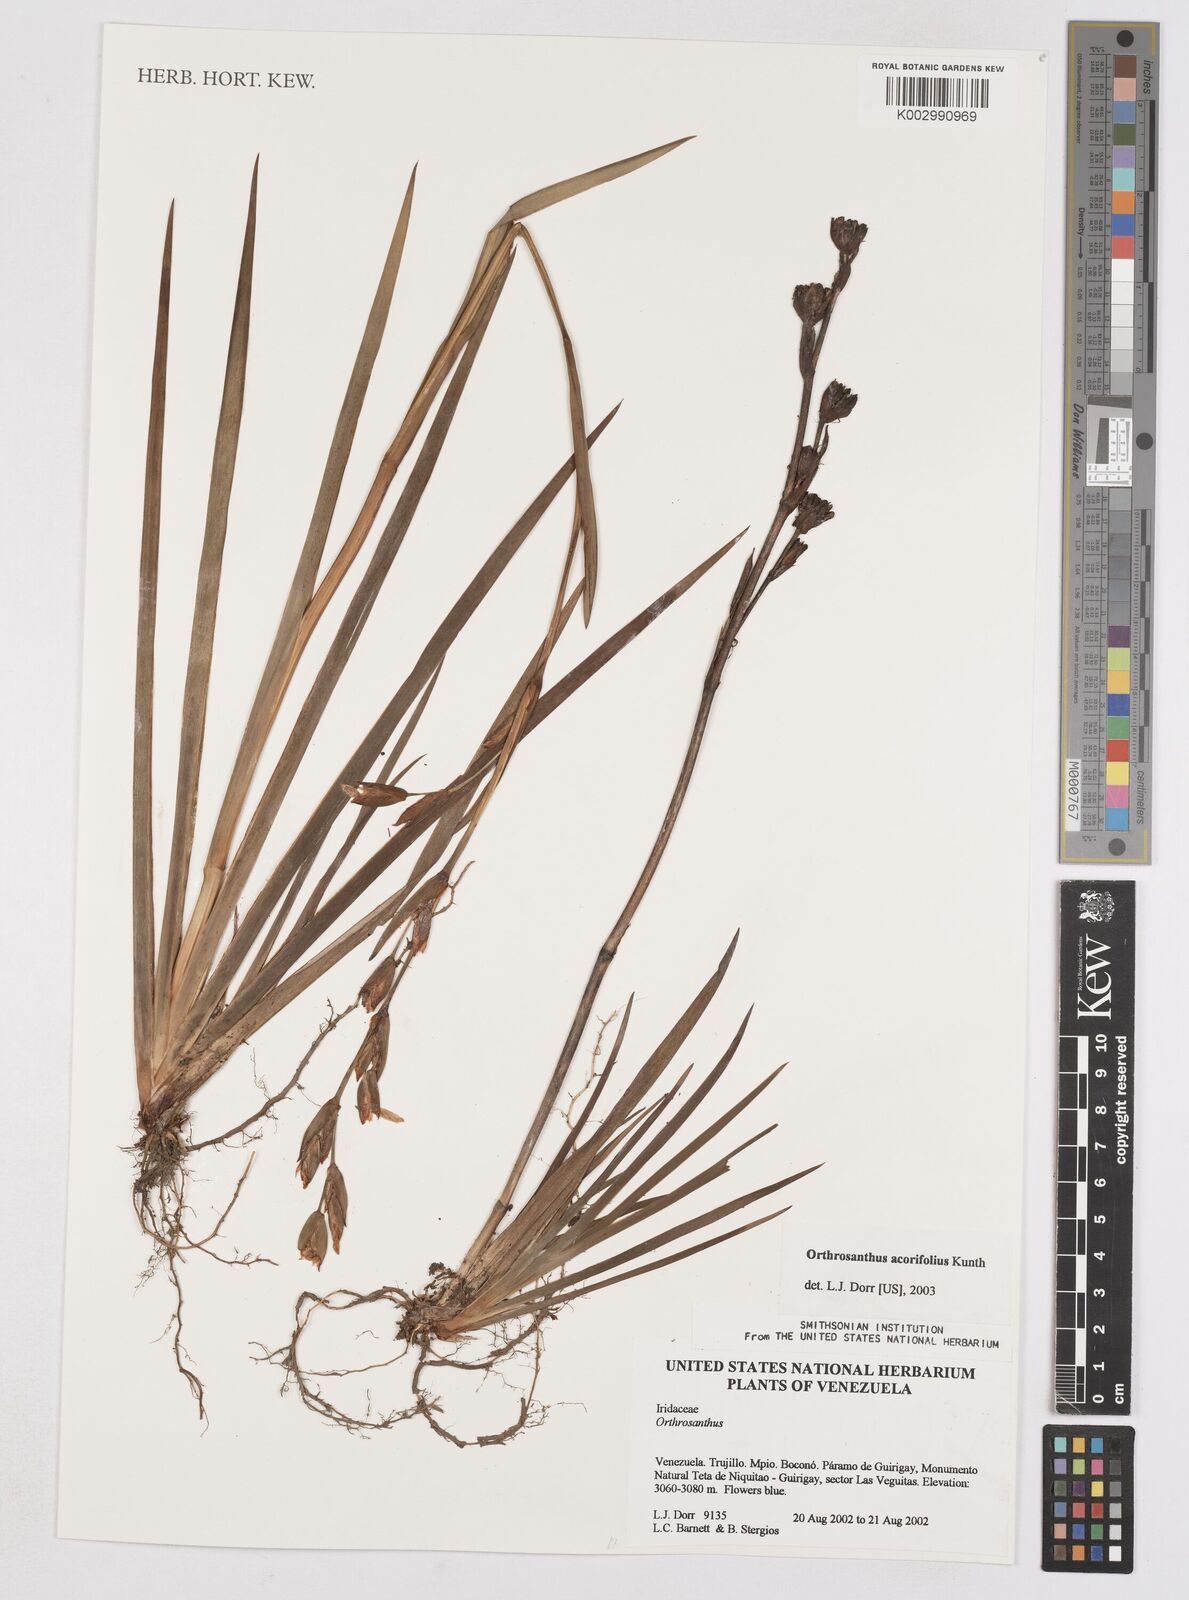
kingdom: Plantae
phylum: Tracheophyta
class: Liliopsida
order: Asparagales
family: Iridaceae
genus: Orthrosanthus
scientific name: Orthrosanthus acorifolius
